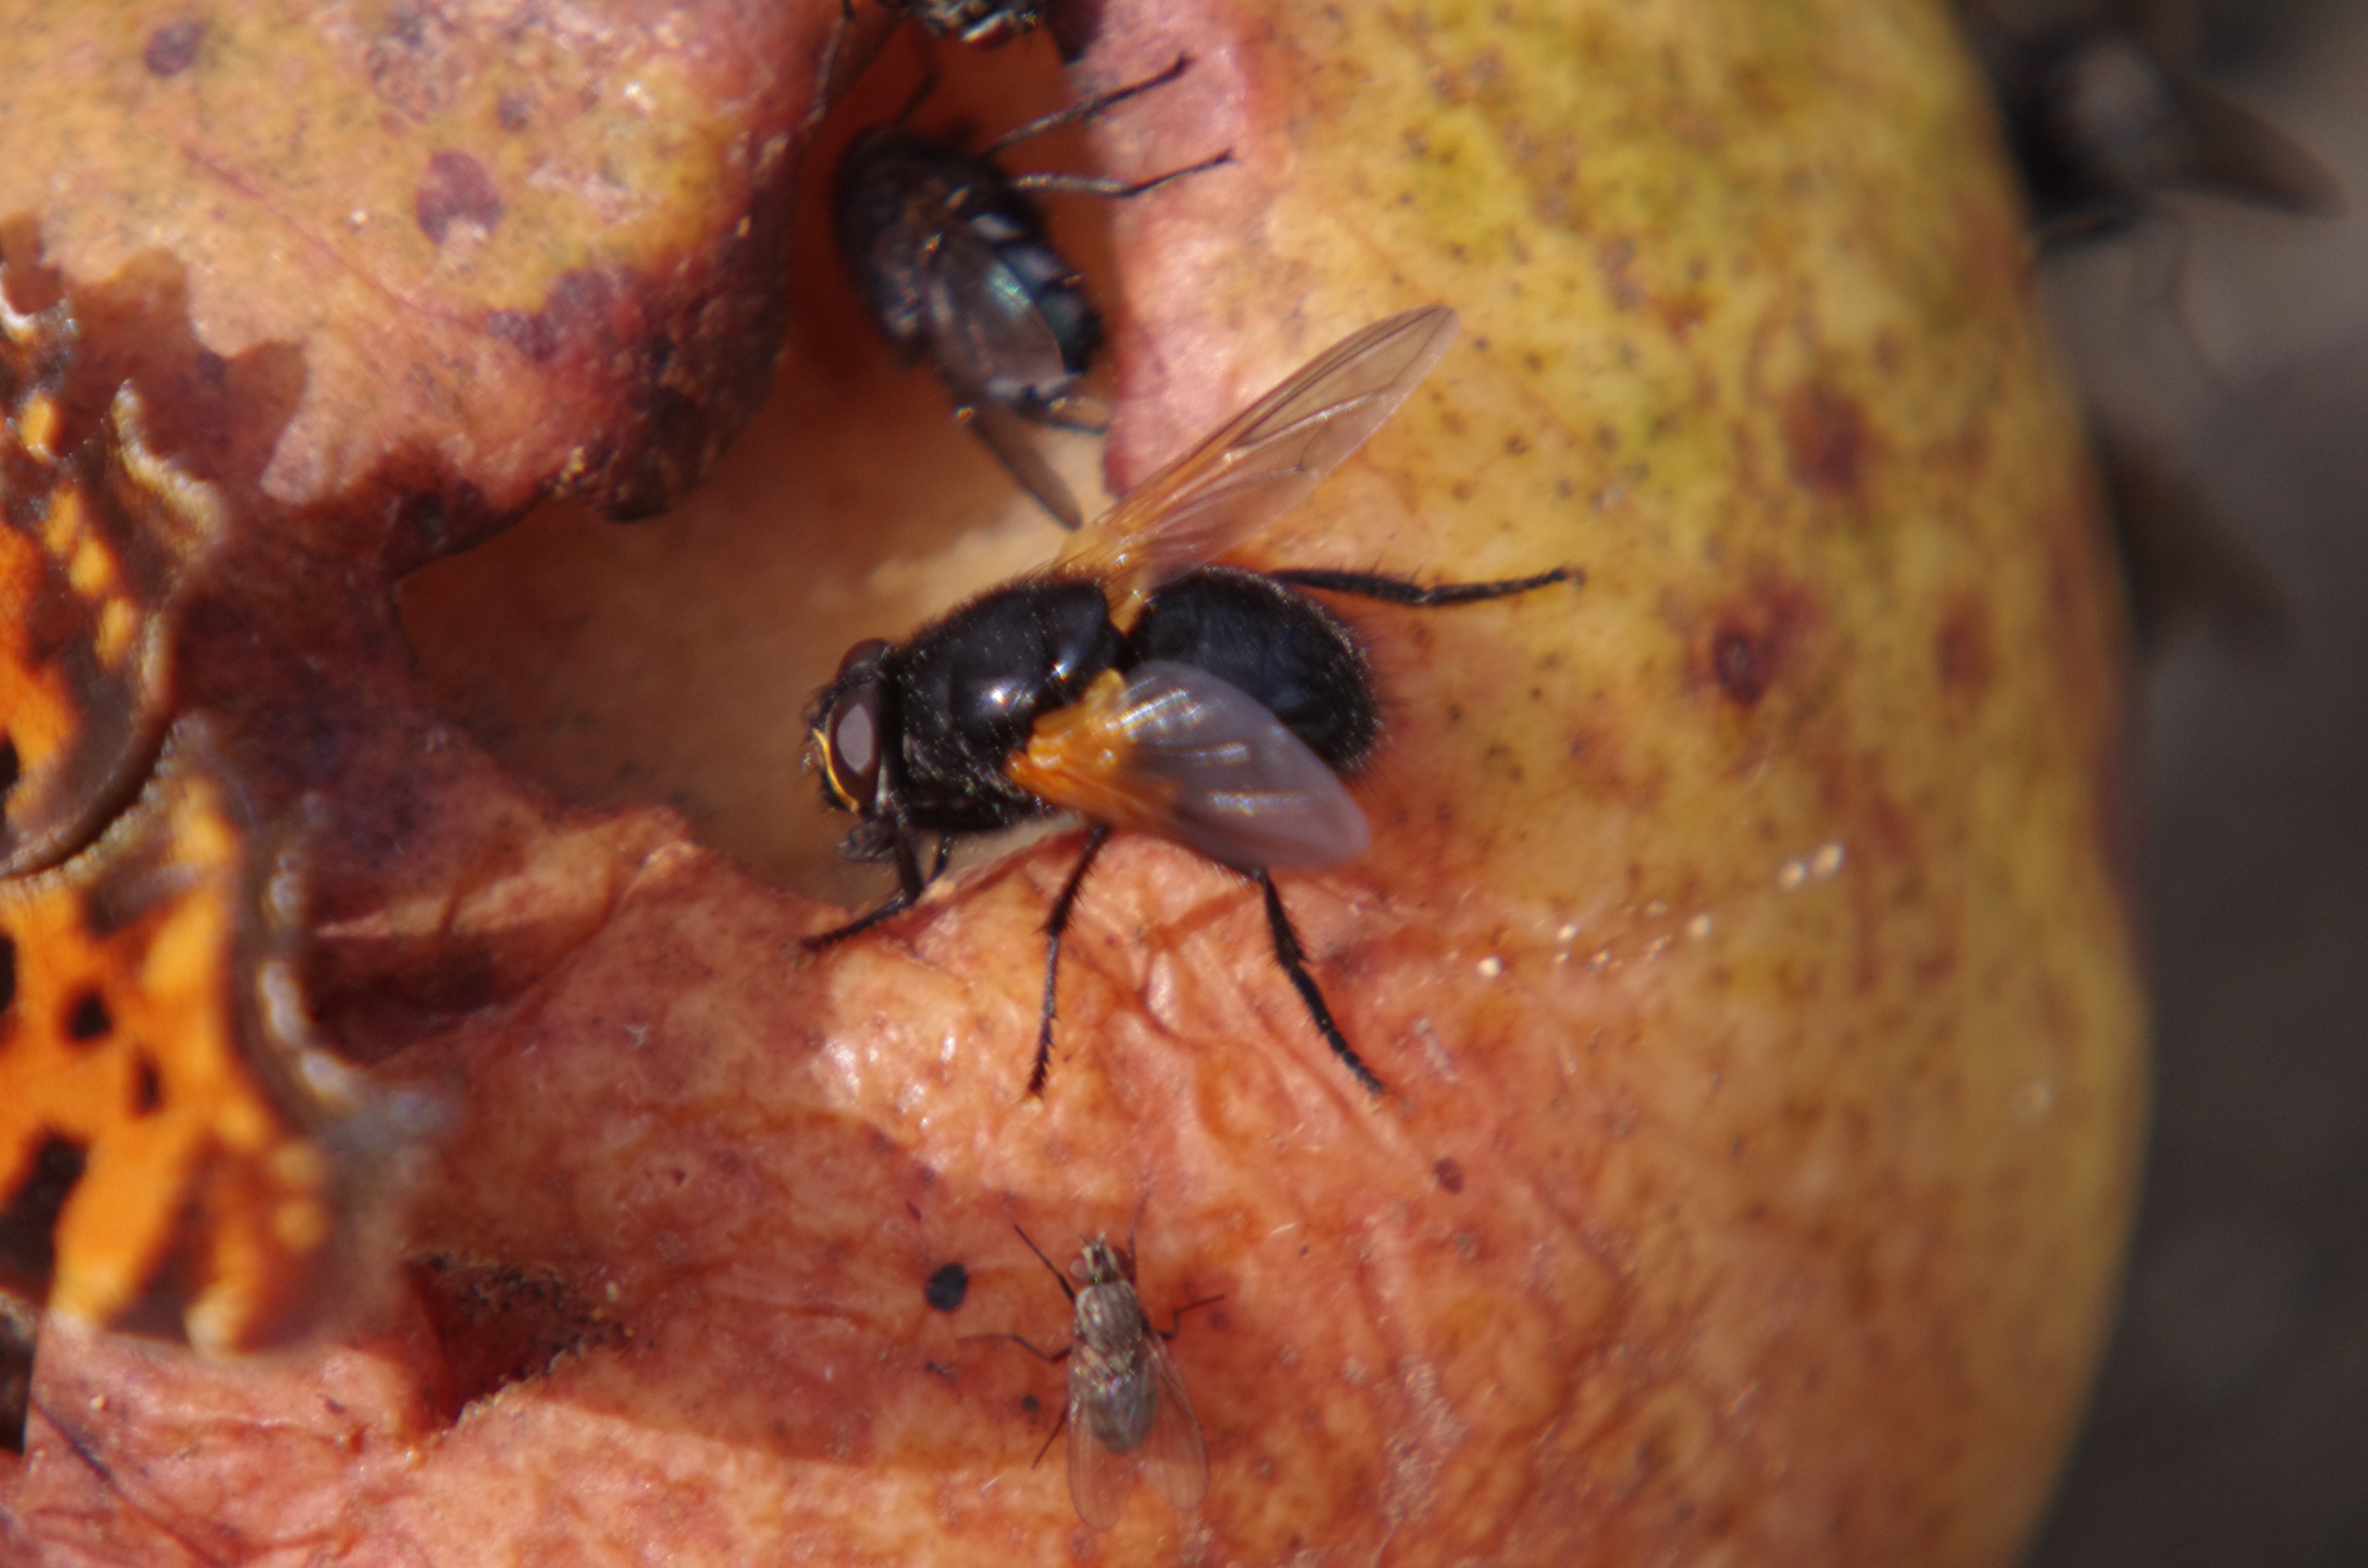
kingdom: Animalia
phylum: Arthropoda
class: Insecta
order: Diptera
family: Muscidae
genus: Mesembrina
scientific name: Mesembrina meridiana
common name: Gulvinget flue
